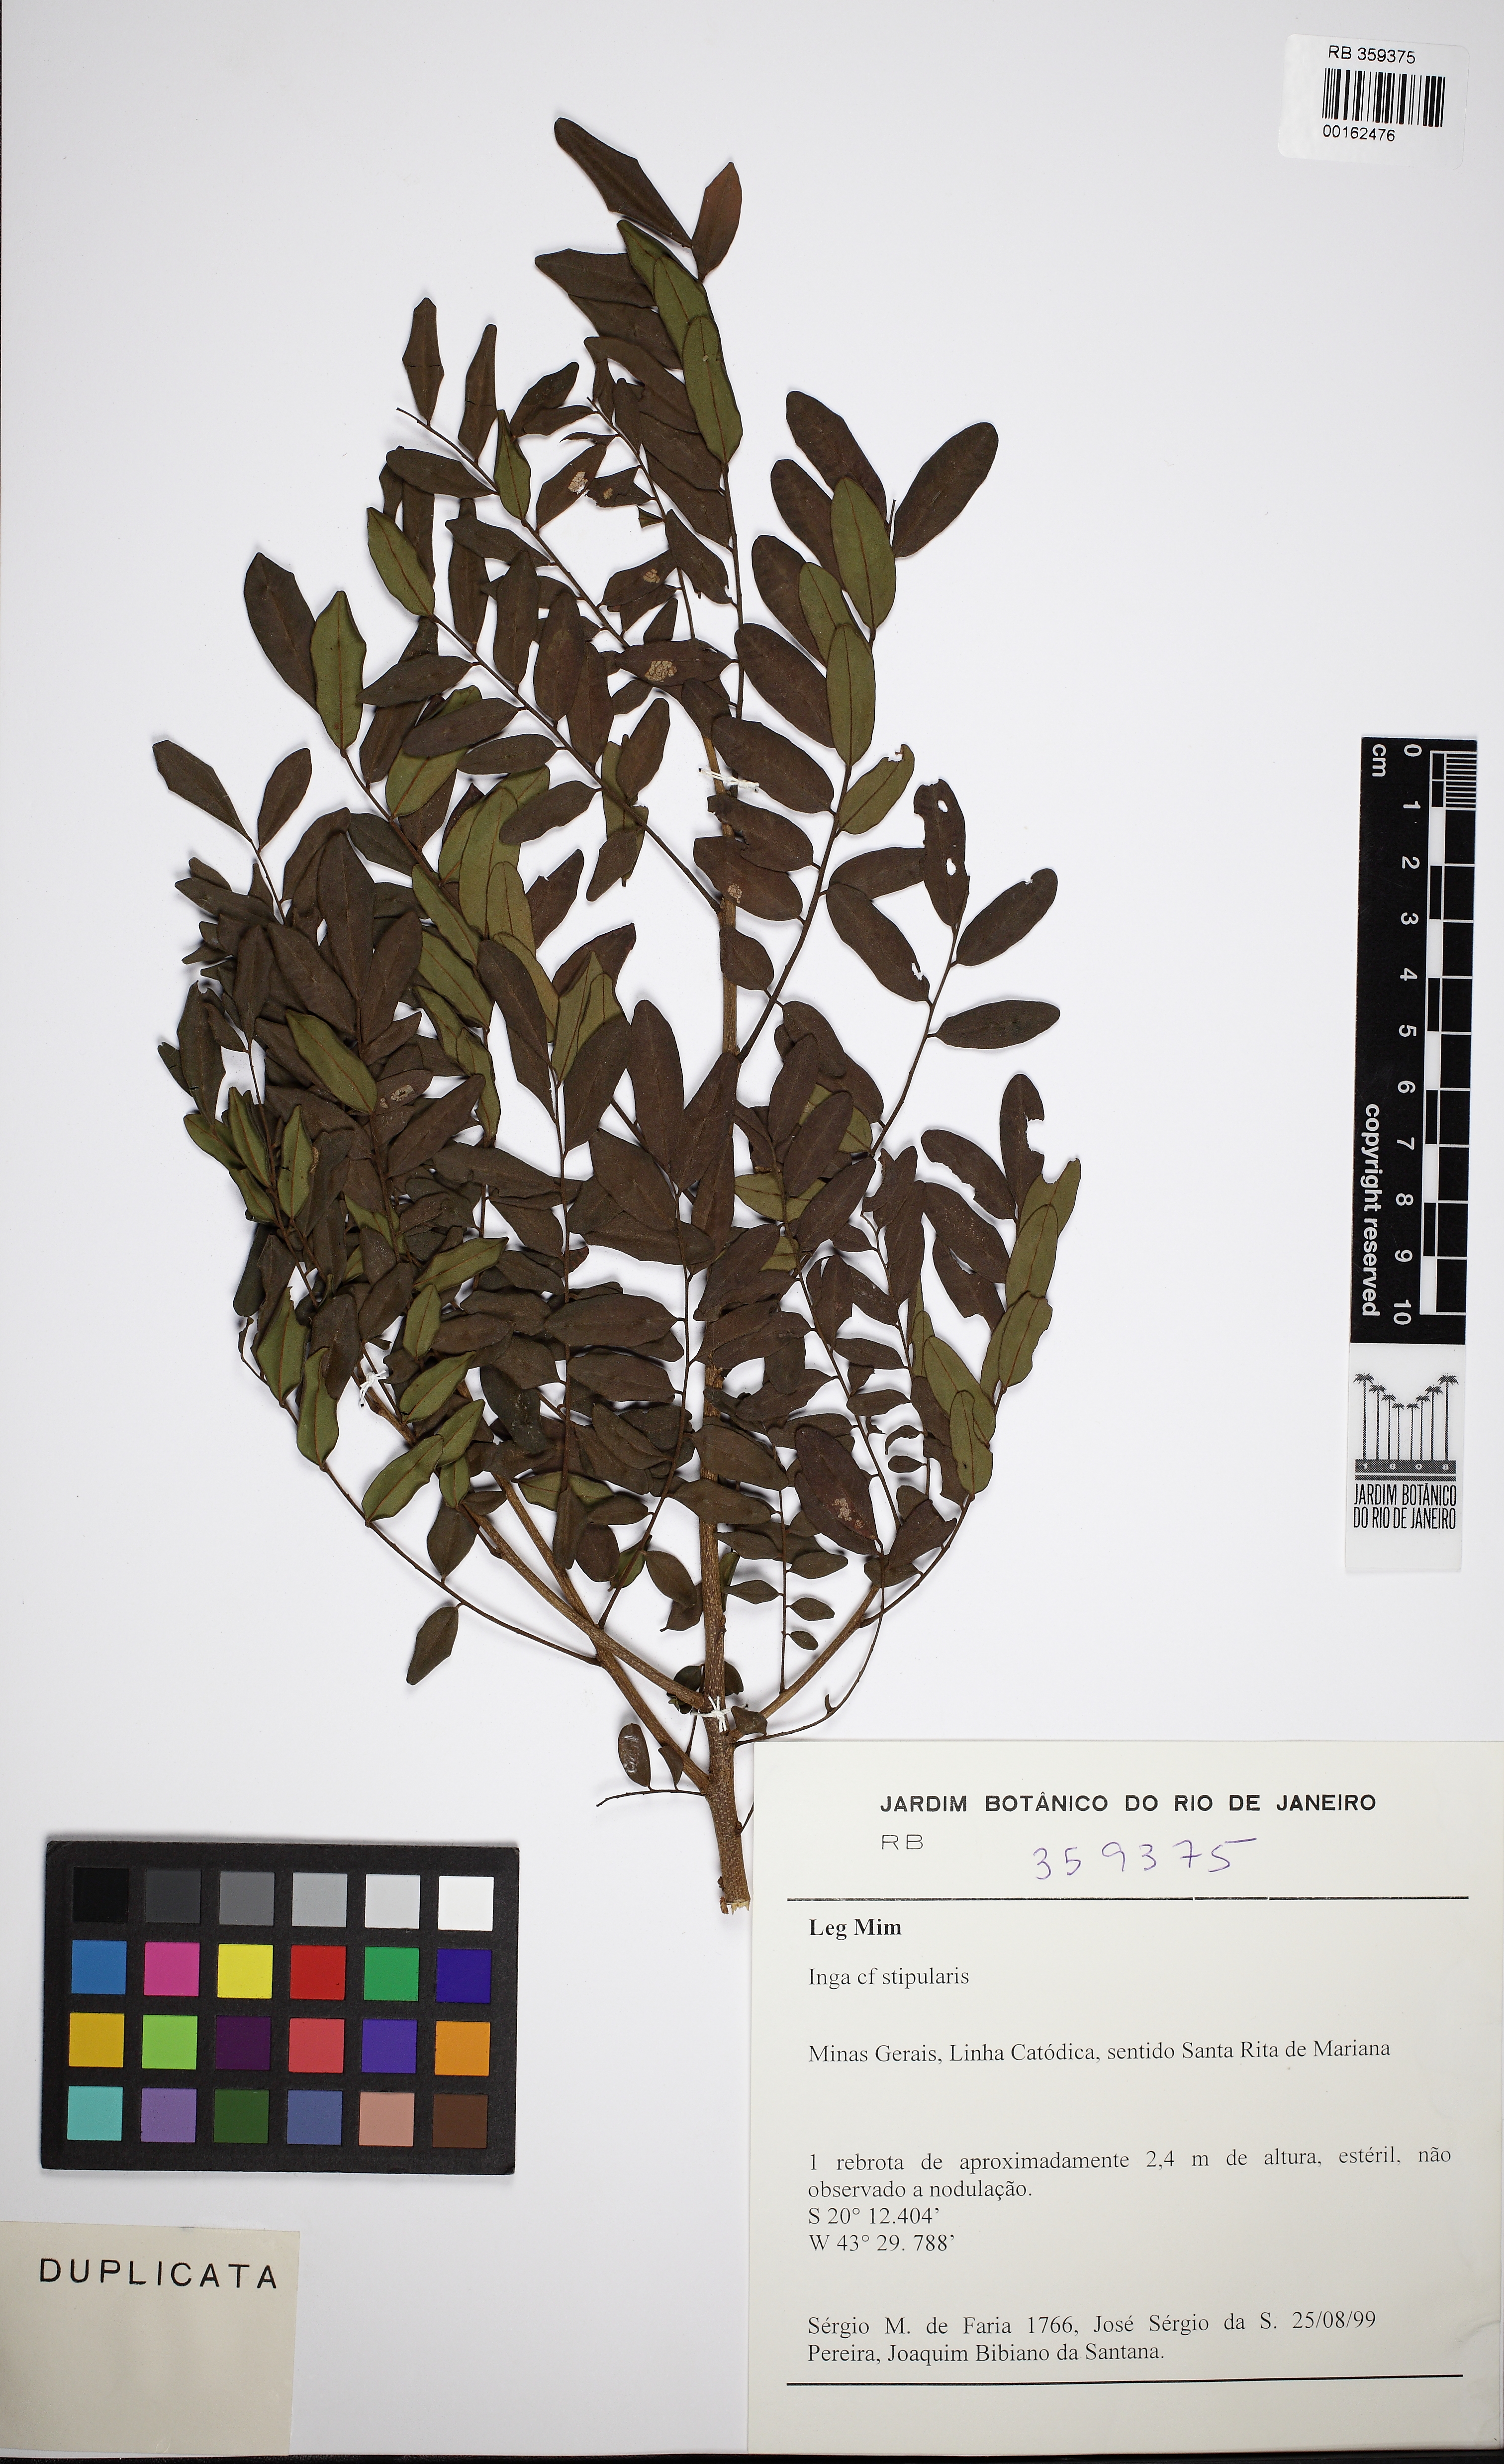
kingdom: Plantae
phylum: Tracheophyta
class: Magnoliopsida
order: Fabales
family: Fabaceae
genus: Inga
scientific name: Inga stipularis
